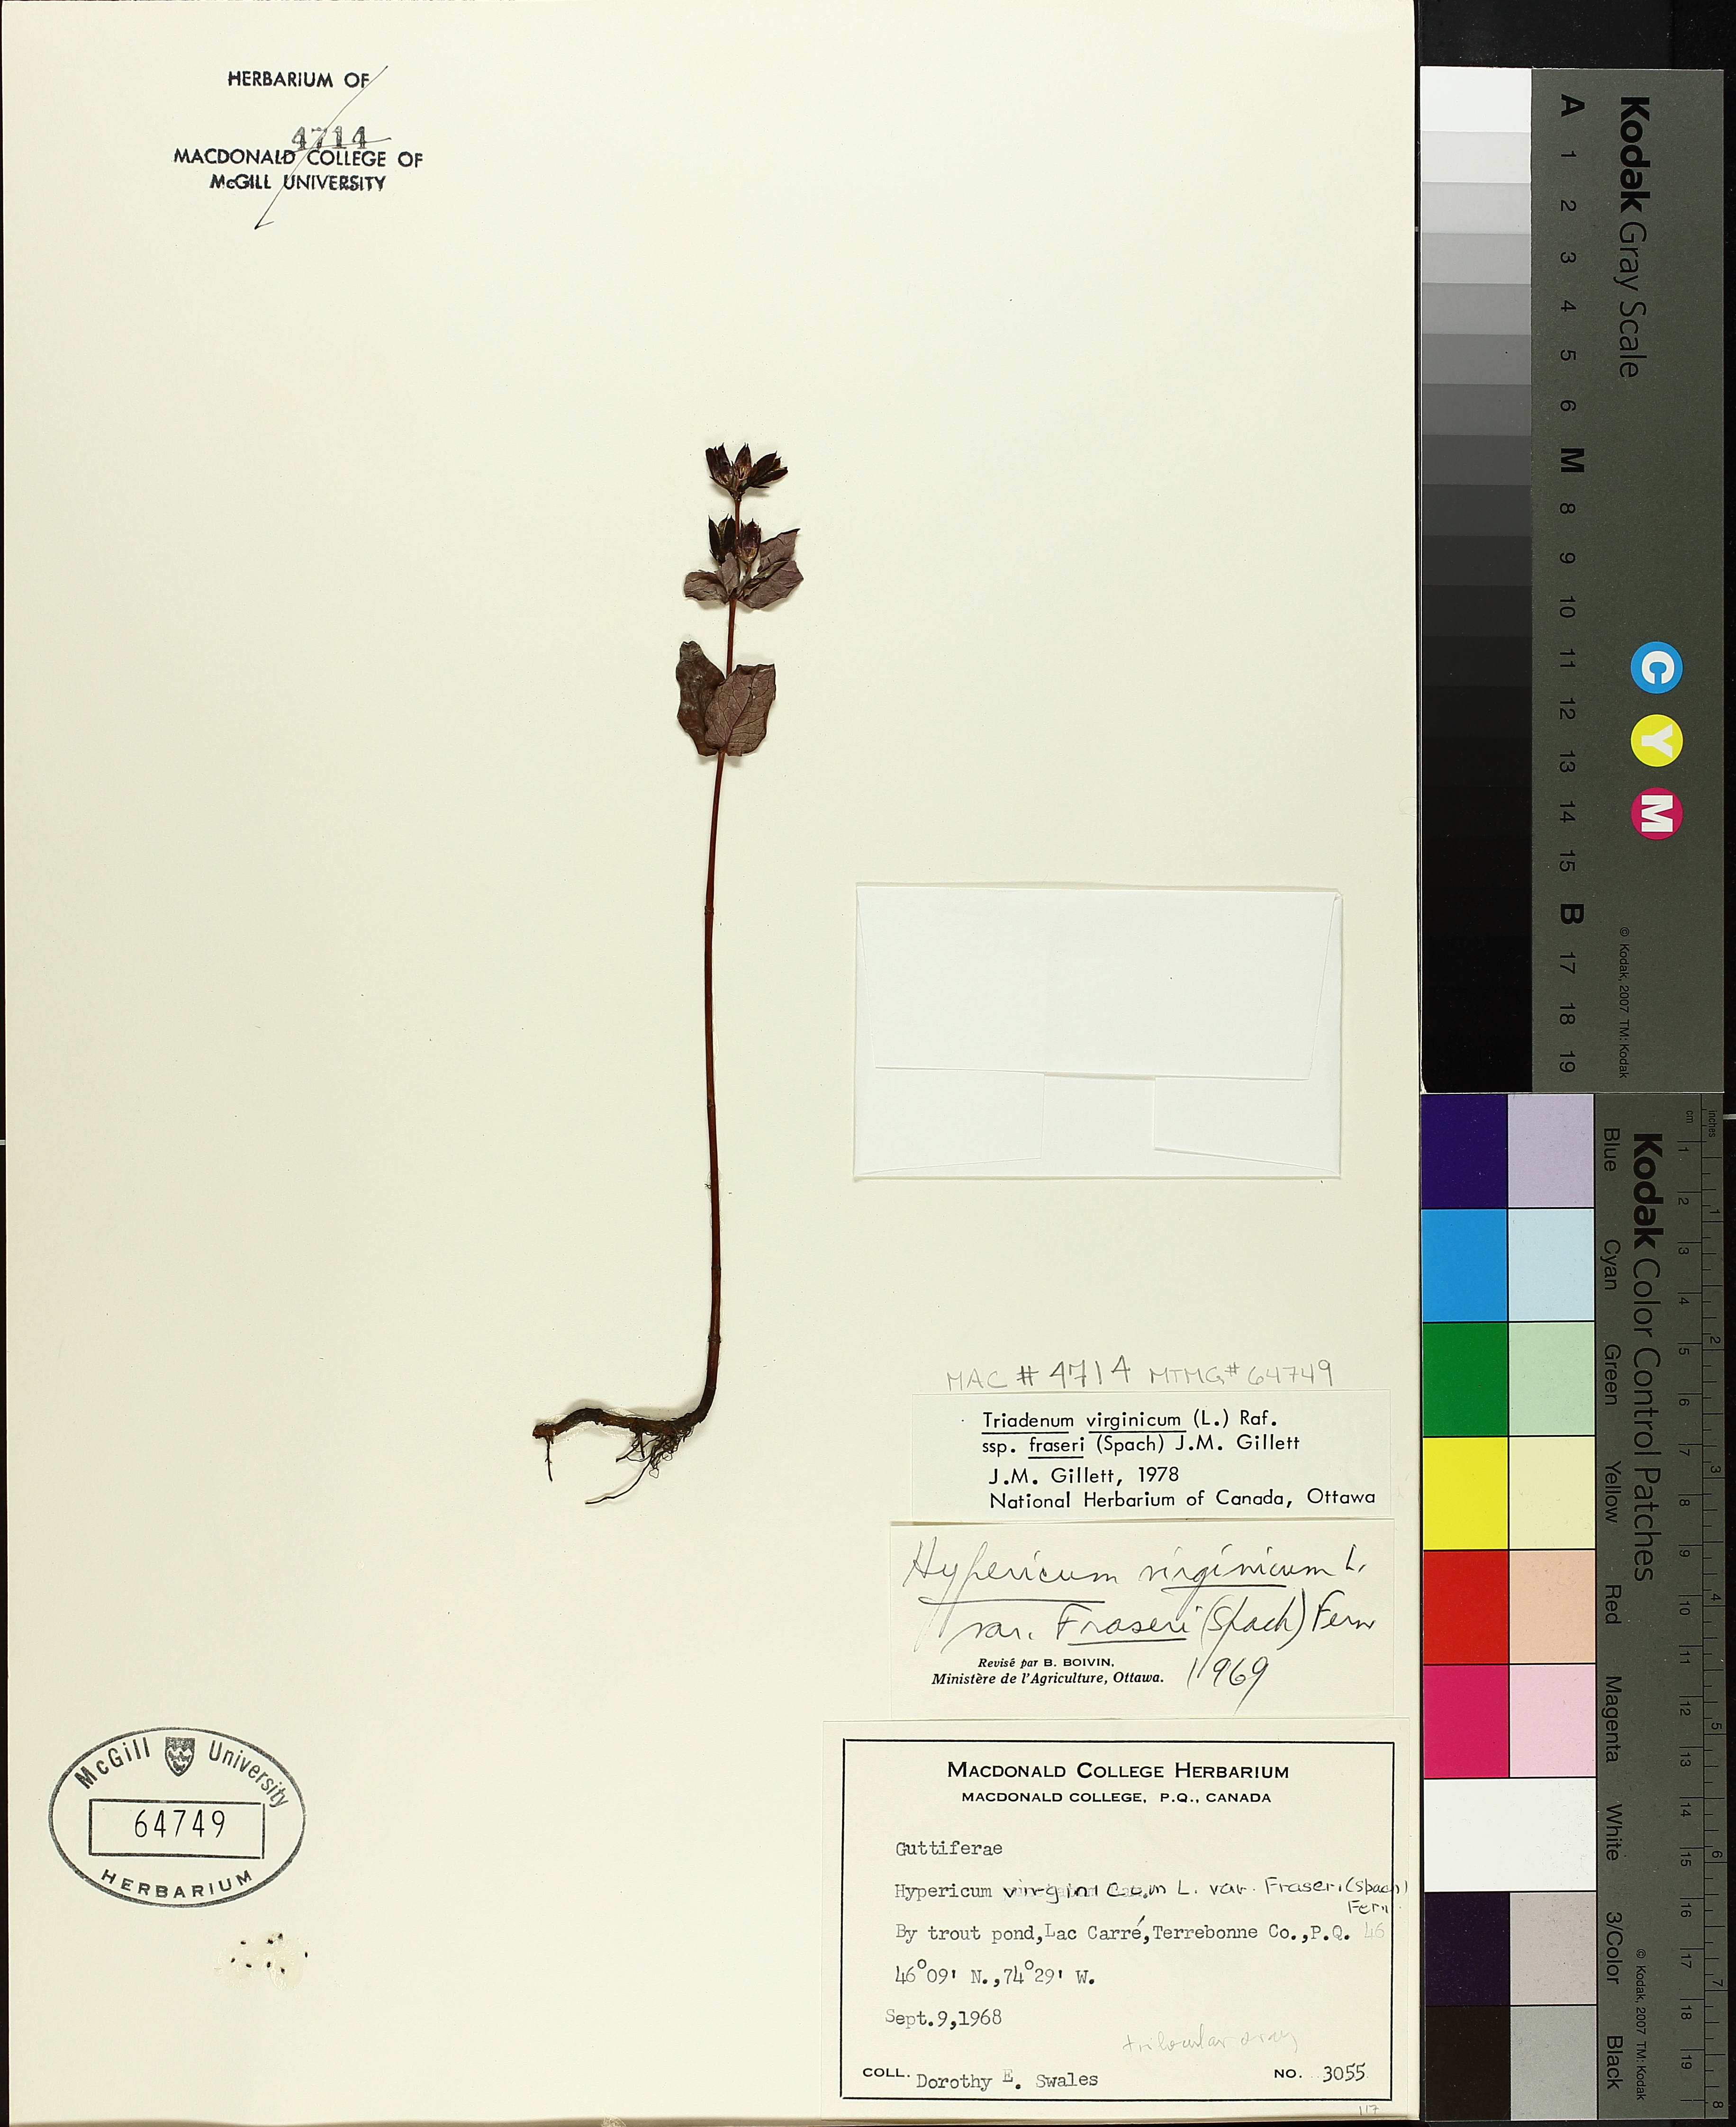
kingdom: Plantae
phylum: Tracheophyta
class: Magnoliopsida
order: Malpighiales
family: Hypericaceae
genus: Triadenum
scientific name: Triadenum fraseri
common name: Fraser's marsh st. johnswort
